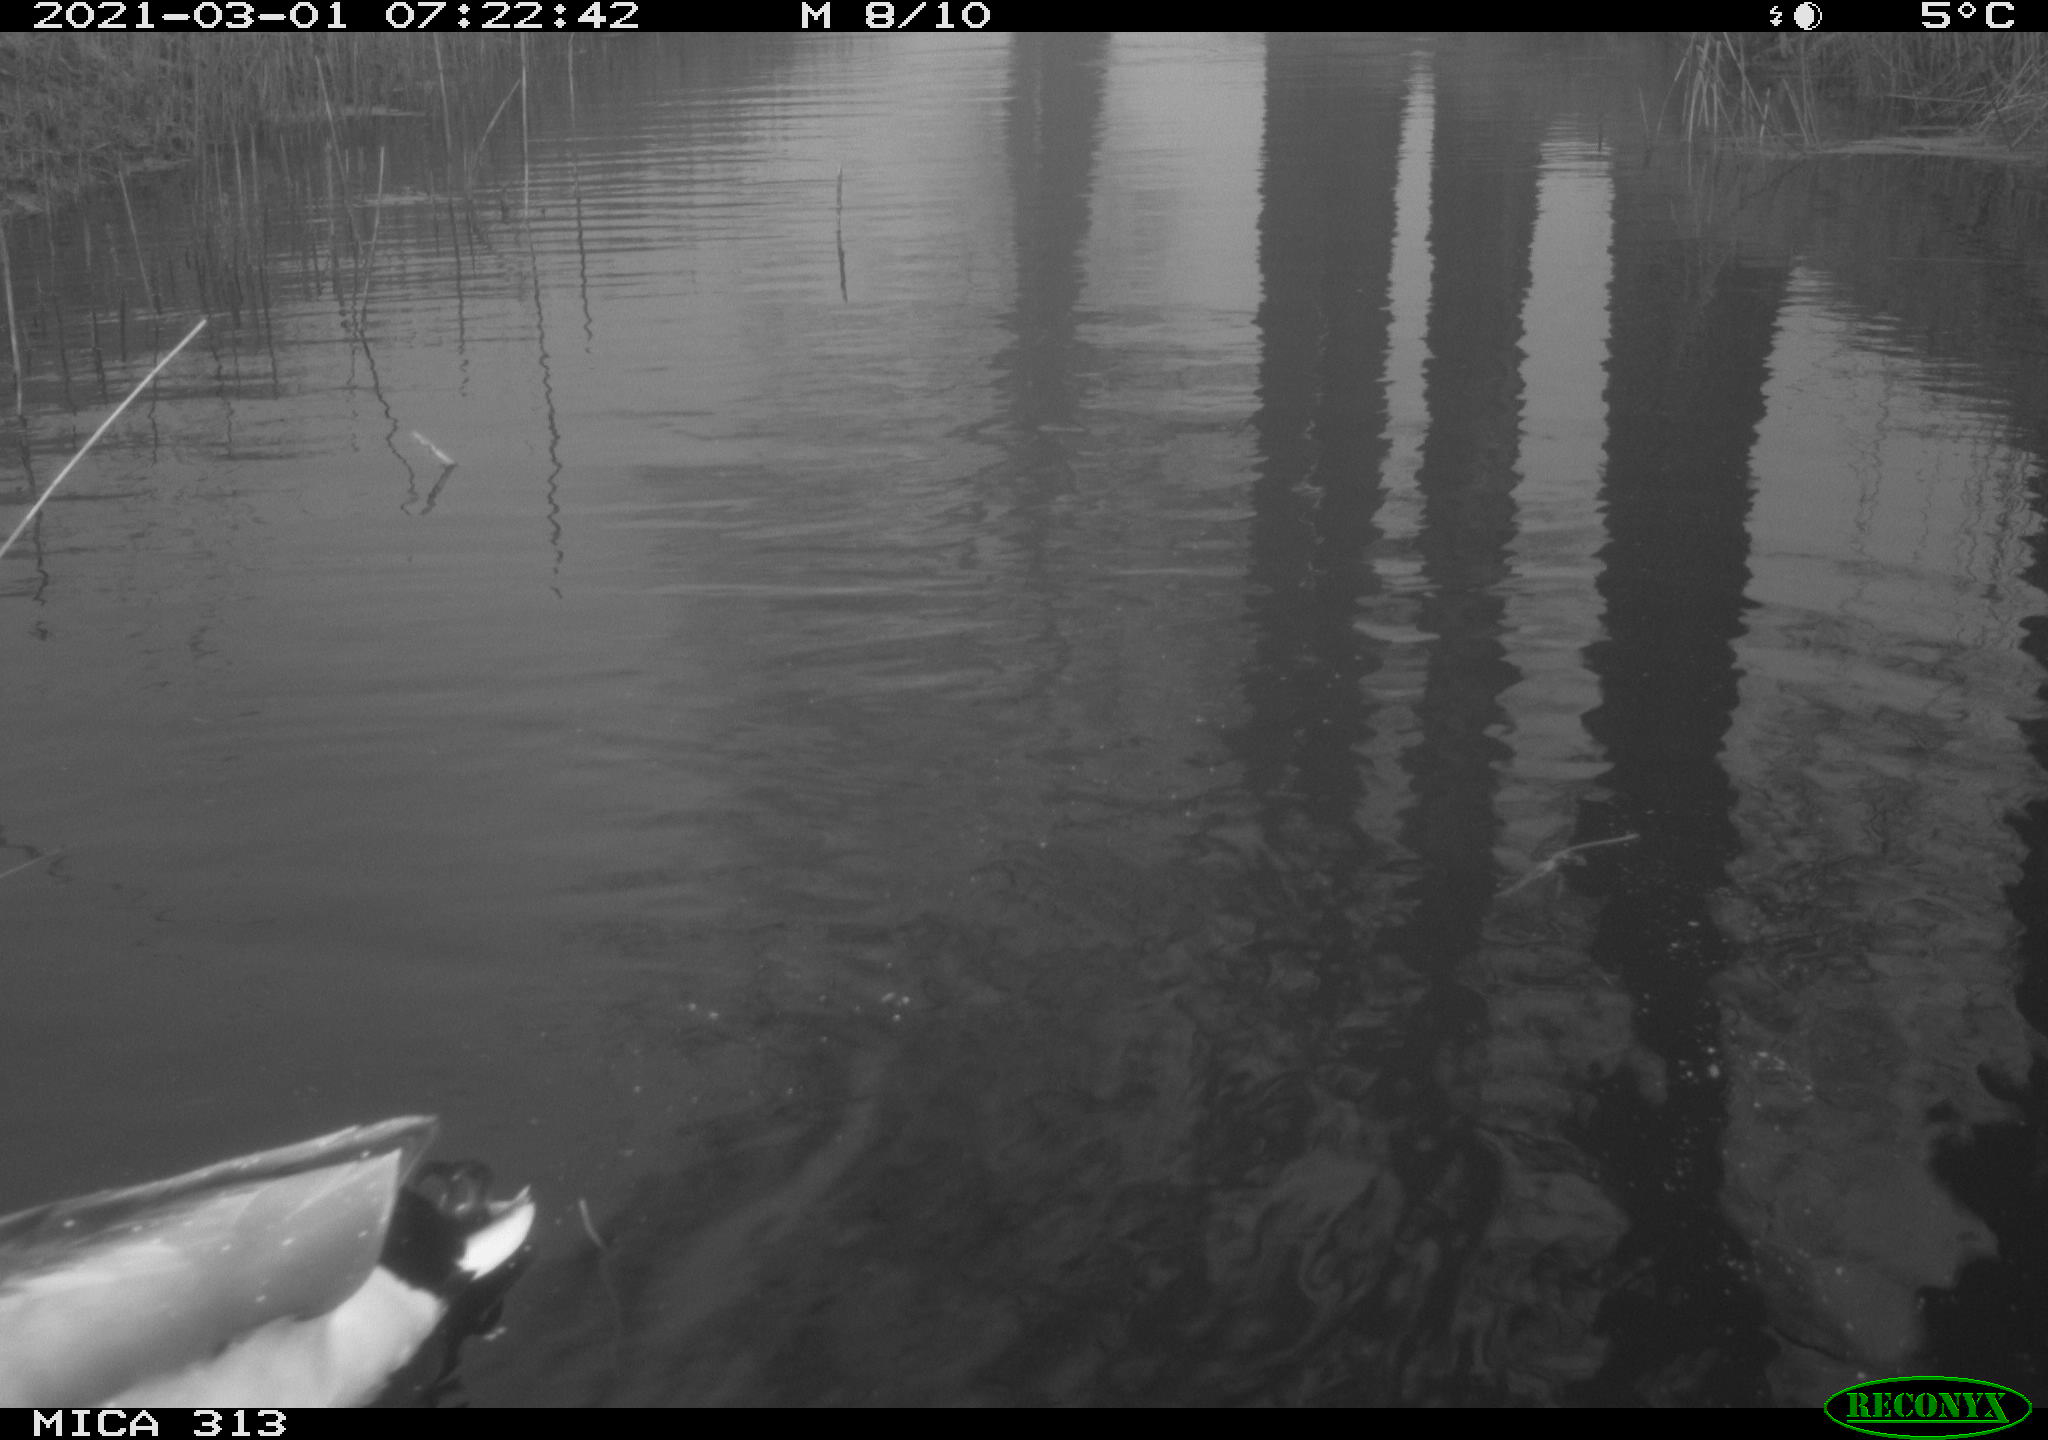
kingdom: Animalia
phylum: Chordata
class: Aves
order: Anseriformes
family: Anatidae
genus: Anas
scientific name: Anas
